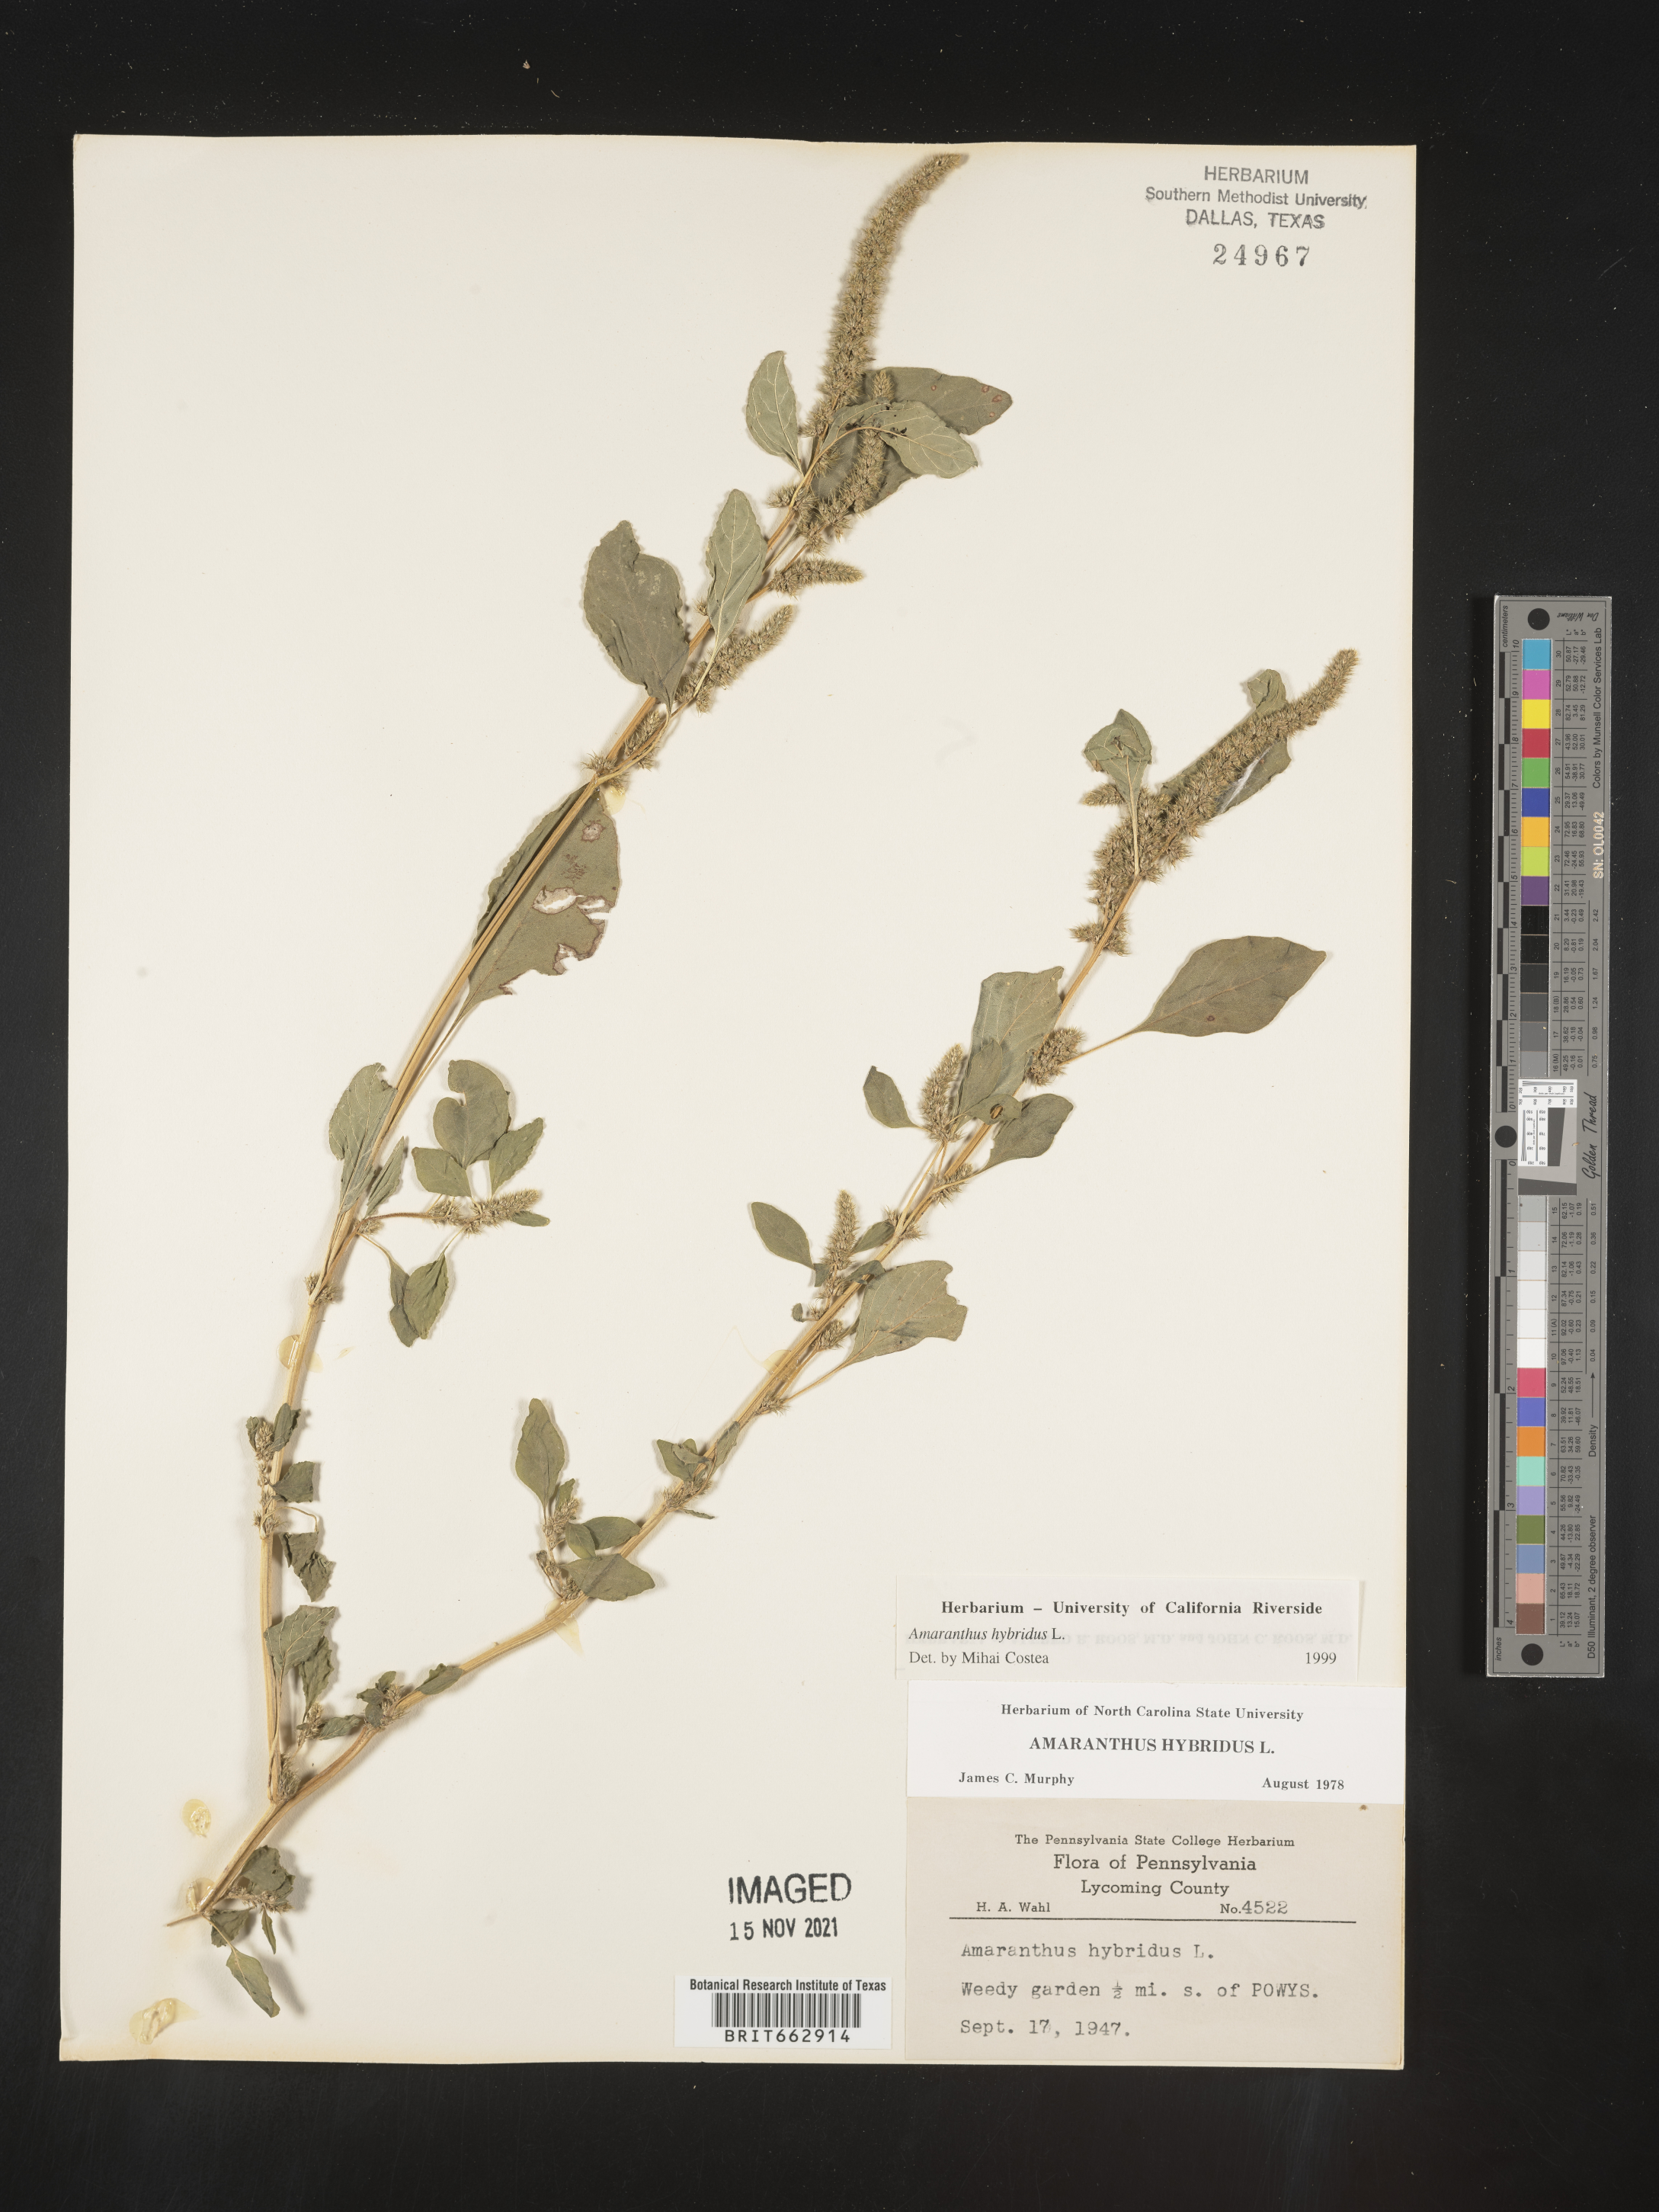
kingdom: Plantae
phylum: Tracheophyta
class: Magnoliopsida
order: Caryophyllales
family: Amaranthaceae
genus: Amaranthus
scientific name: Amaranthus hybridus
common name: Green amaranth
